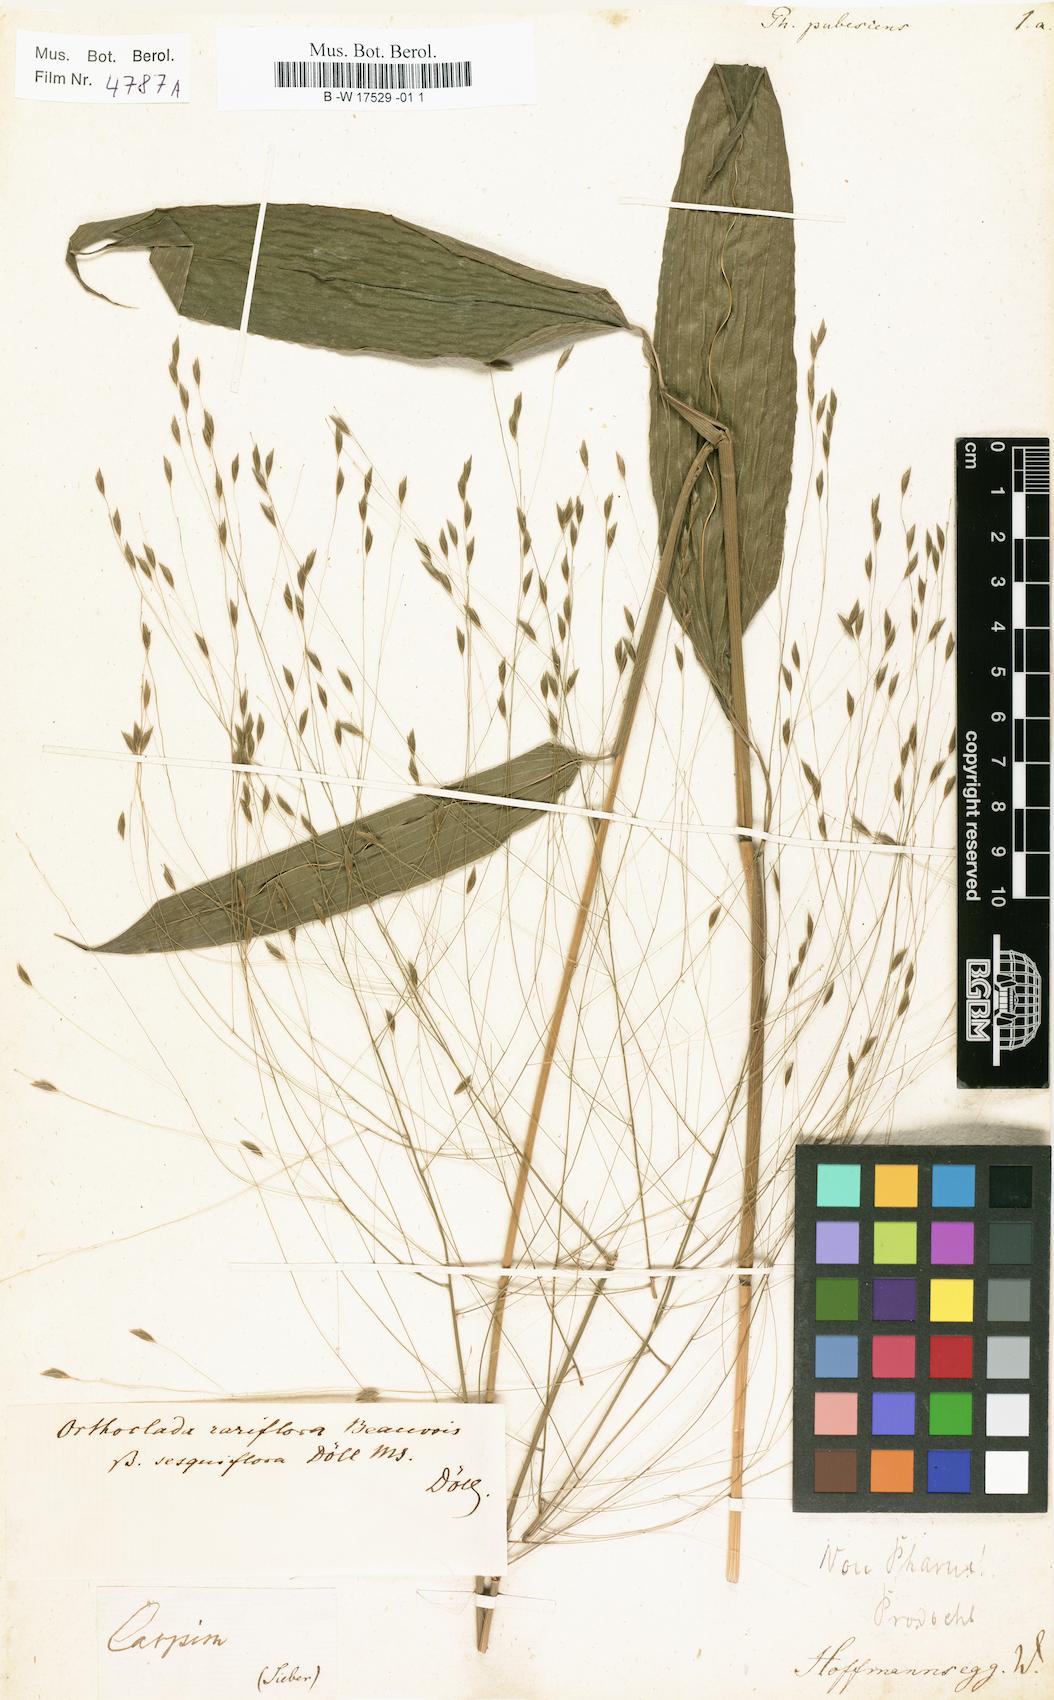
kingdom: Plantae
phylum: Tracheophyta
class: Liliopsida
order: Poales
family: Poaceae
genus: Pharus
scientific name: Pharus lappulaceus
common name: Creeping leafstalk grass
